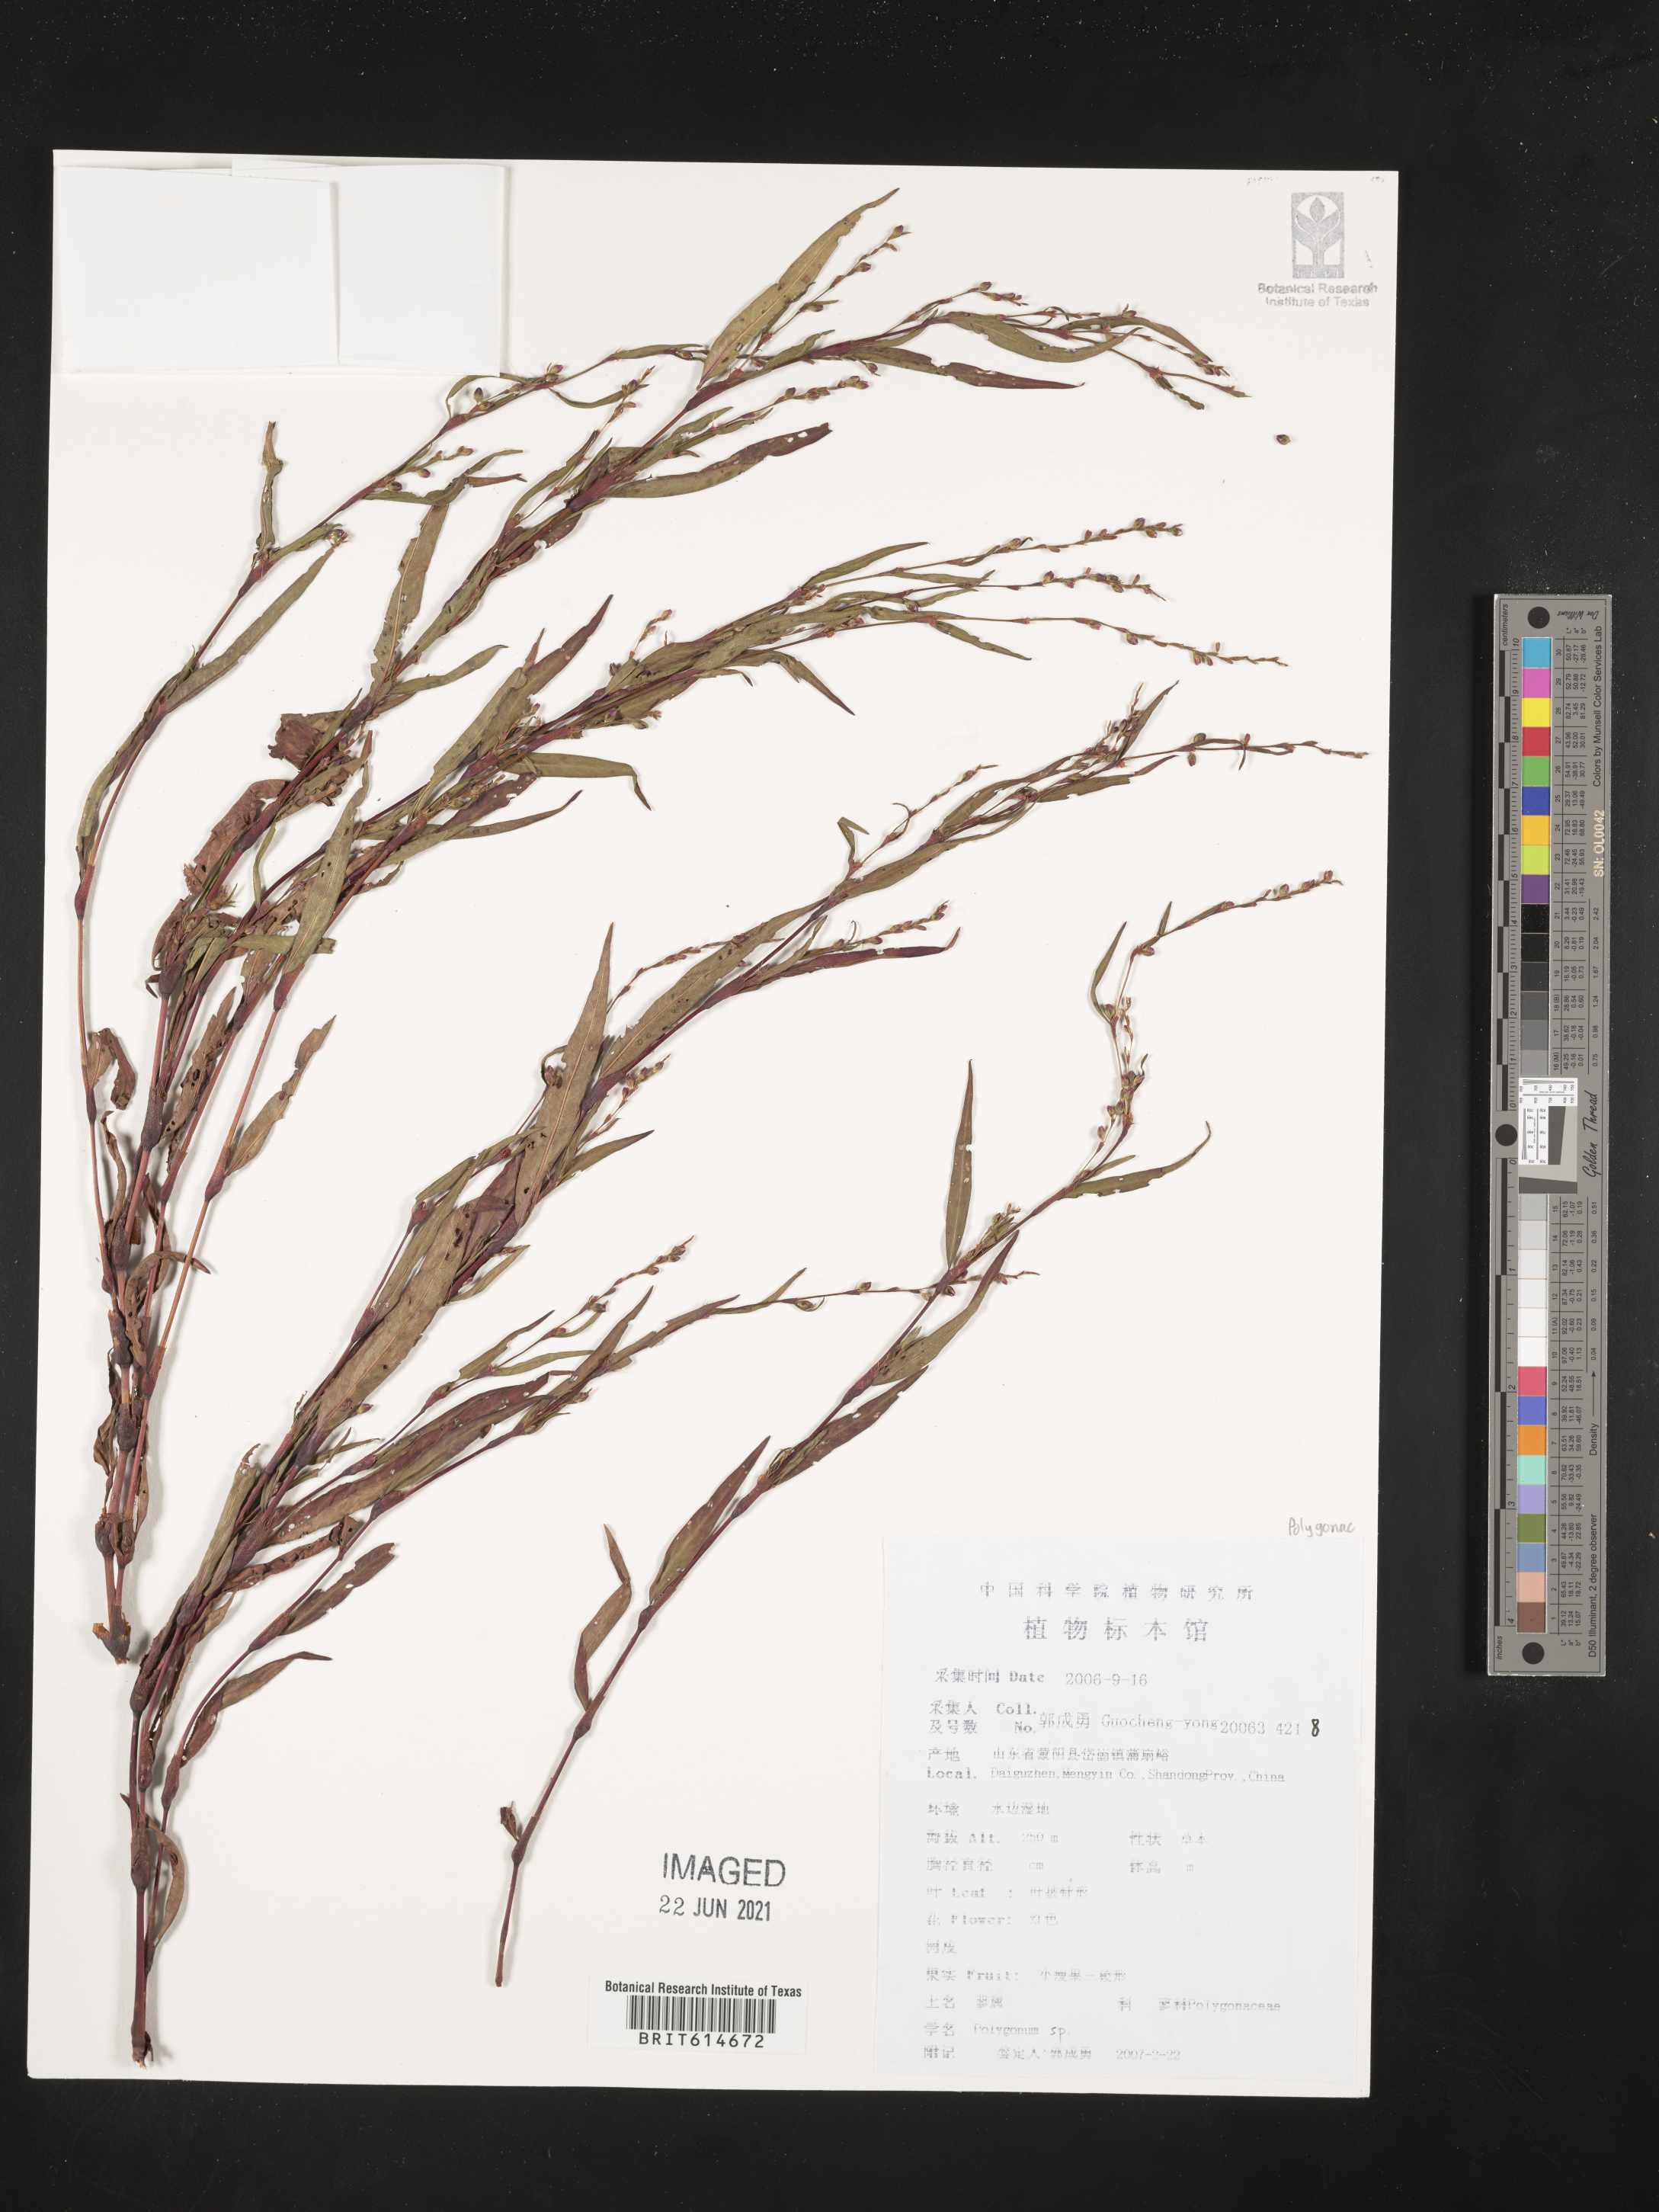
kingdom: Plantae
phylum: Tracheophyta
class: Magnoliopsida
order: Caryophyllales
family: Polygonaceae
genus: Polygonum
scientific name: Polygonum
